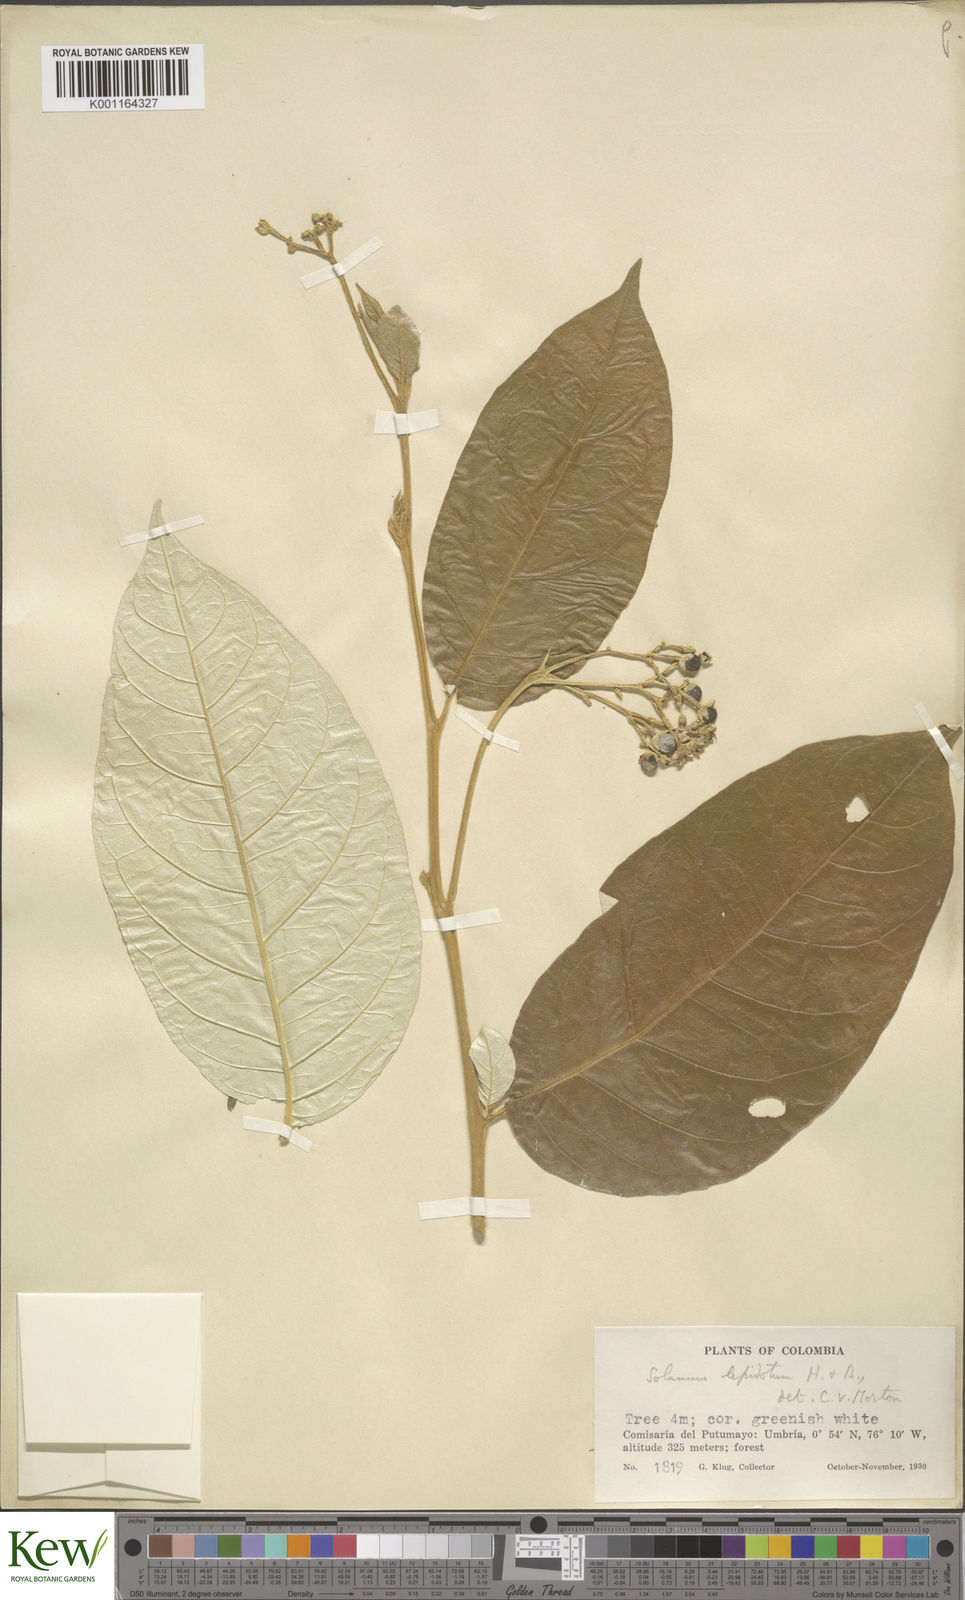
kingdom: Plantae
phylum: Tracheophyta
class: Magnoliopsida
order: Solanales
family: Solanaceae
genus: Solanum
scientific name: Solanum lepidotum
